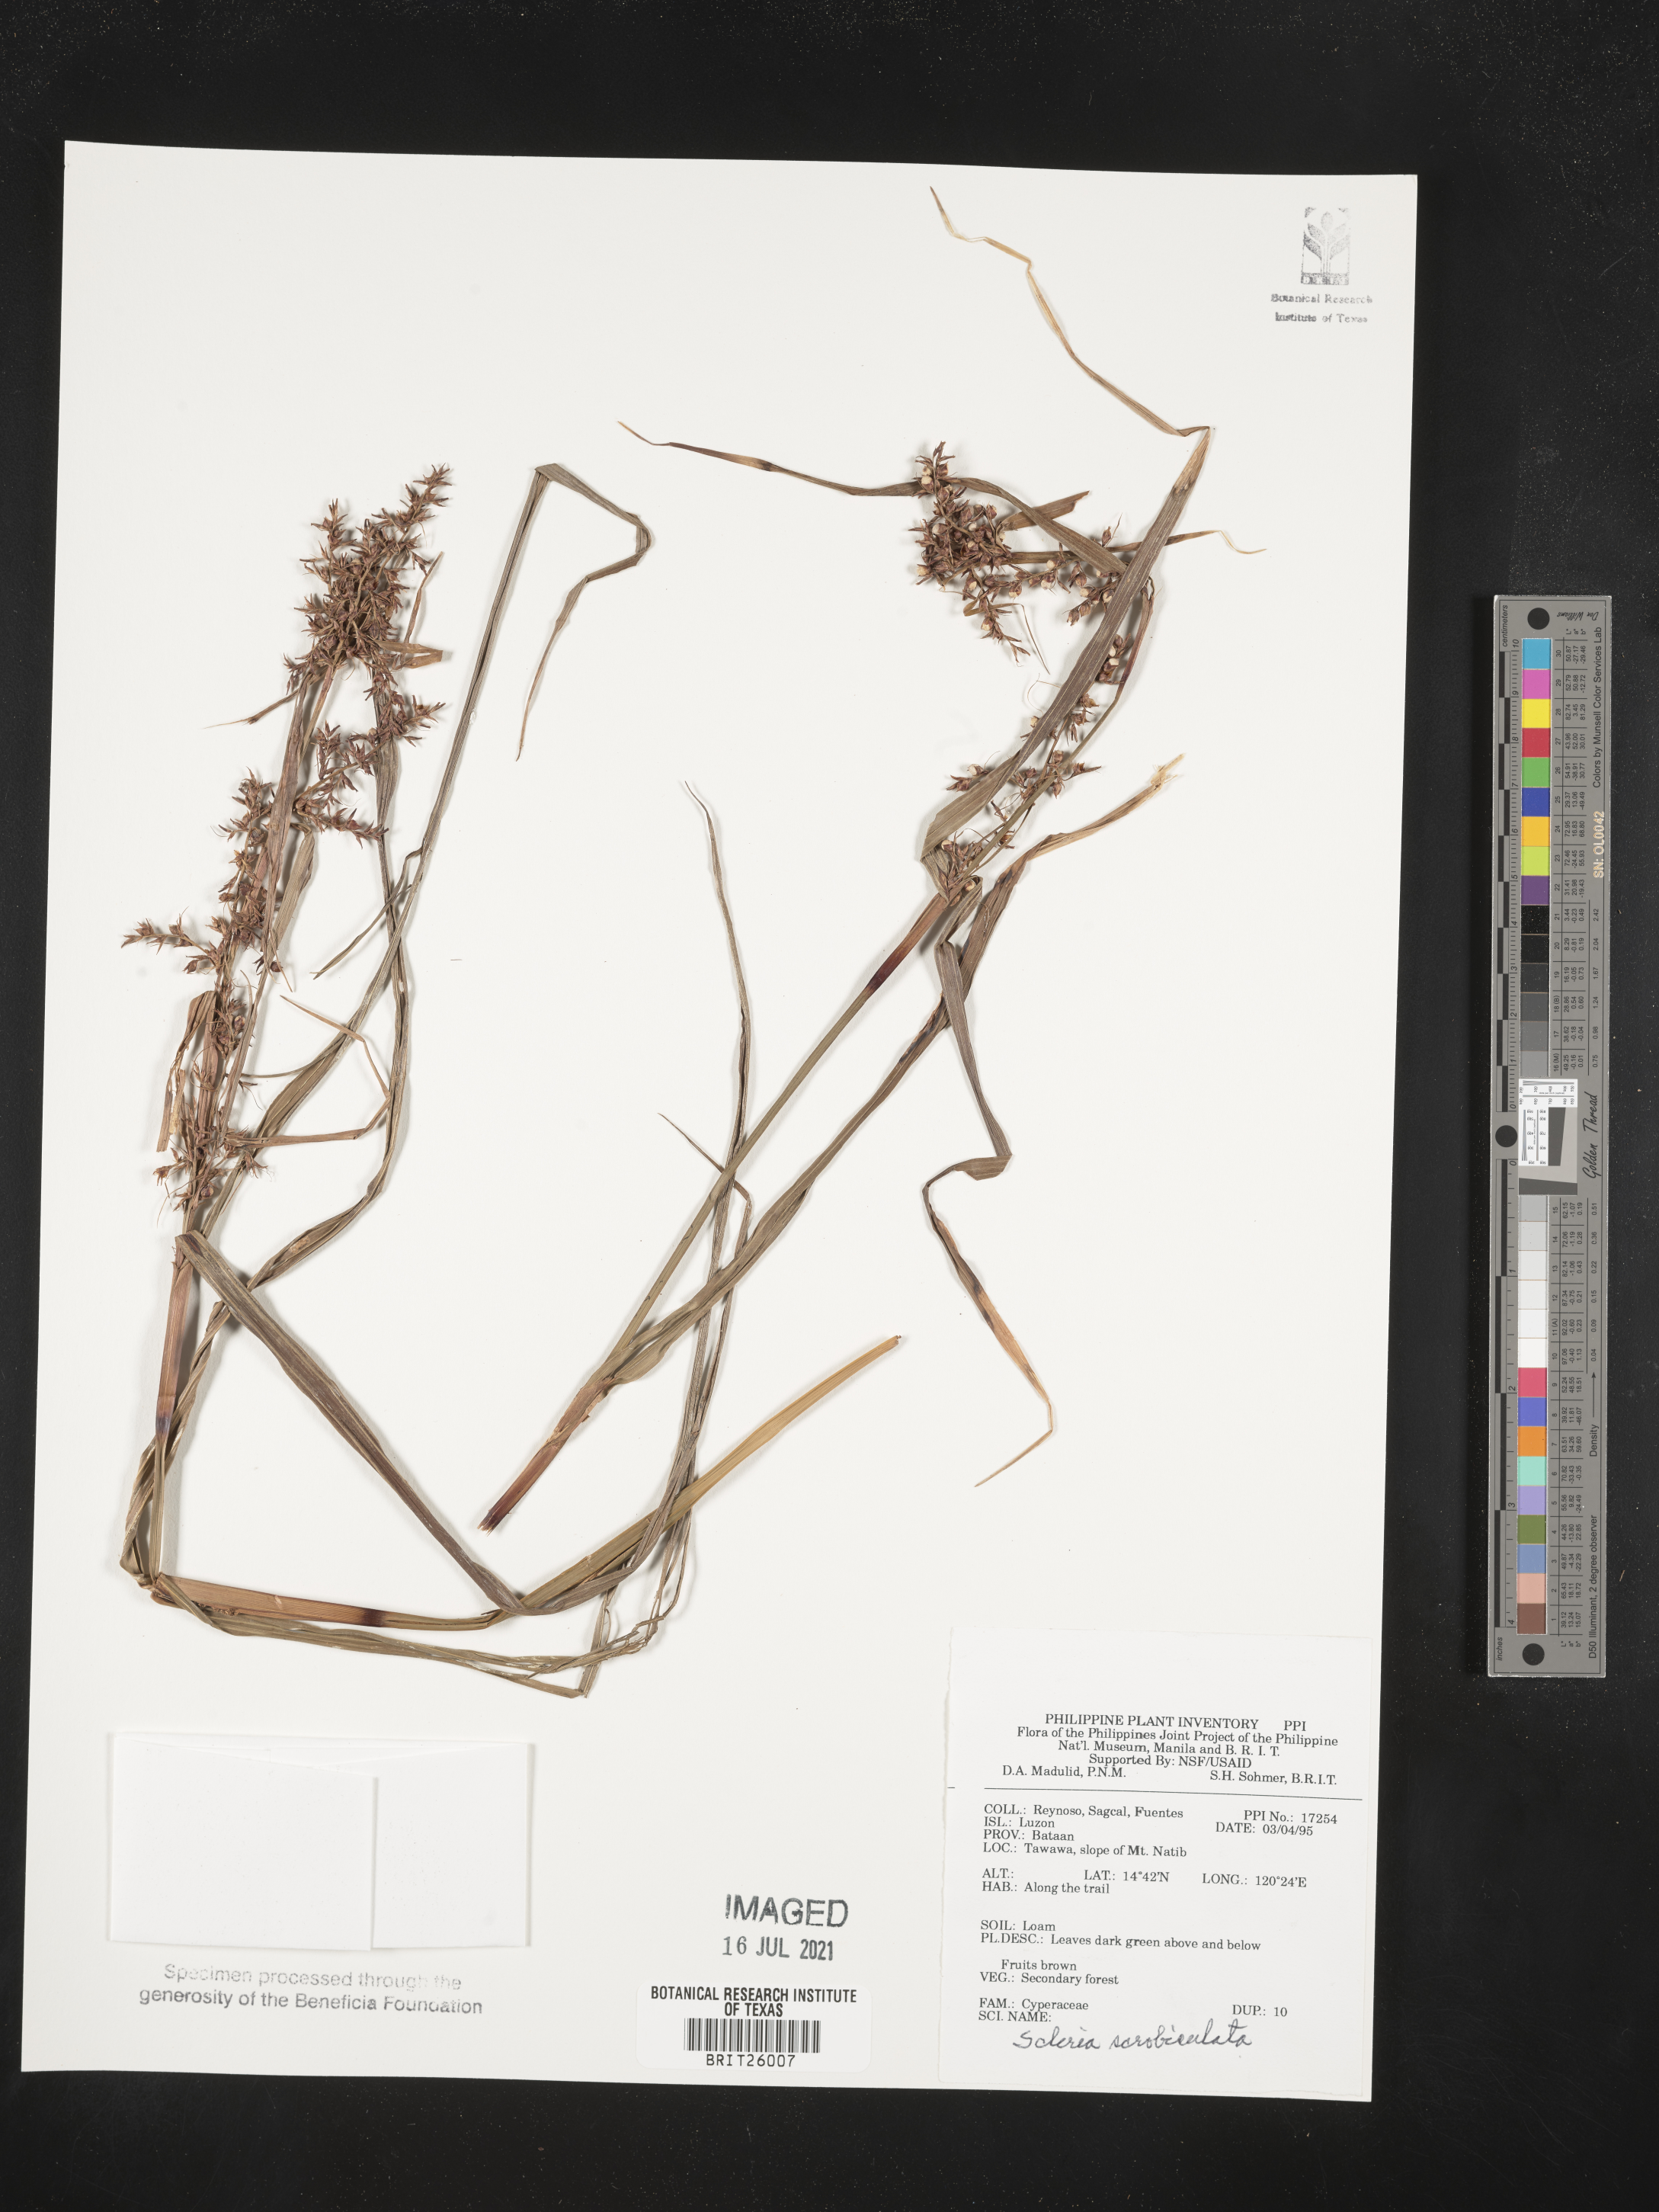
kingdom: Plantae
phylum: Tracheophyta
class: Liliopsida
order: Poales
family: Cyperaceae
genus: Scleria
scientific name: Scleria scrobiculata
